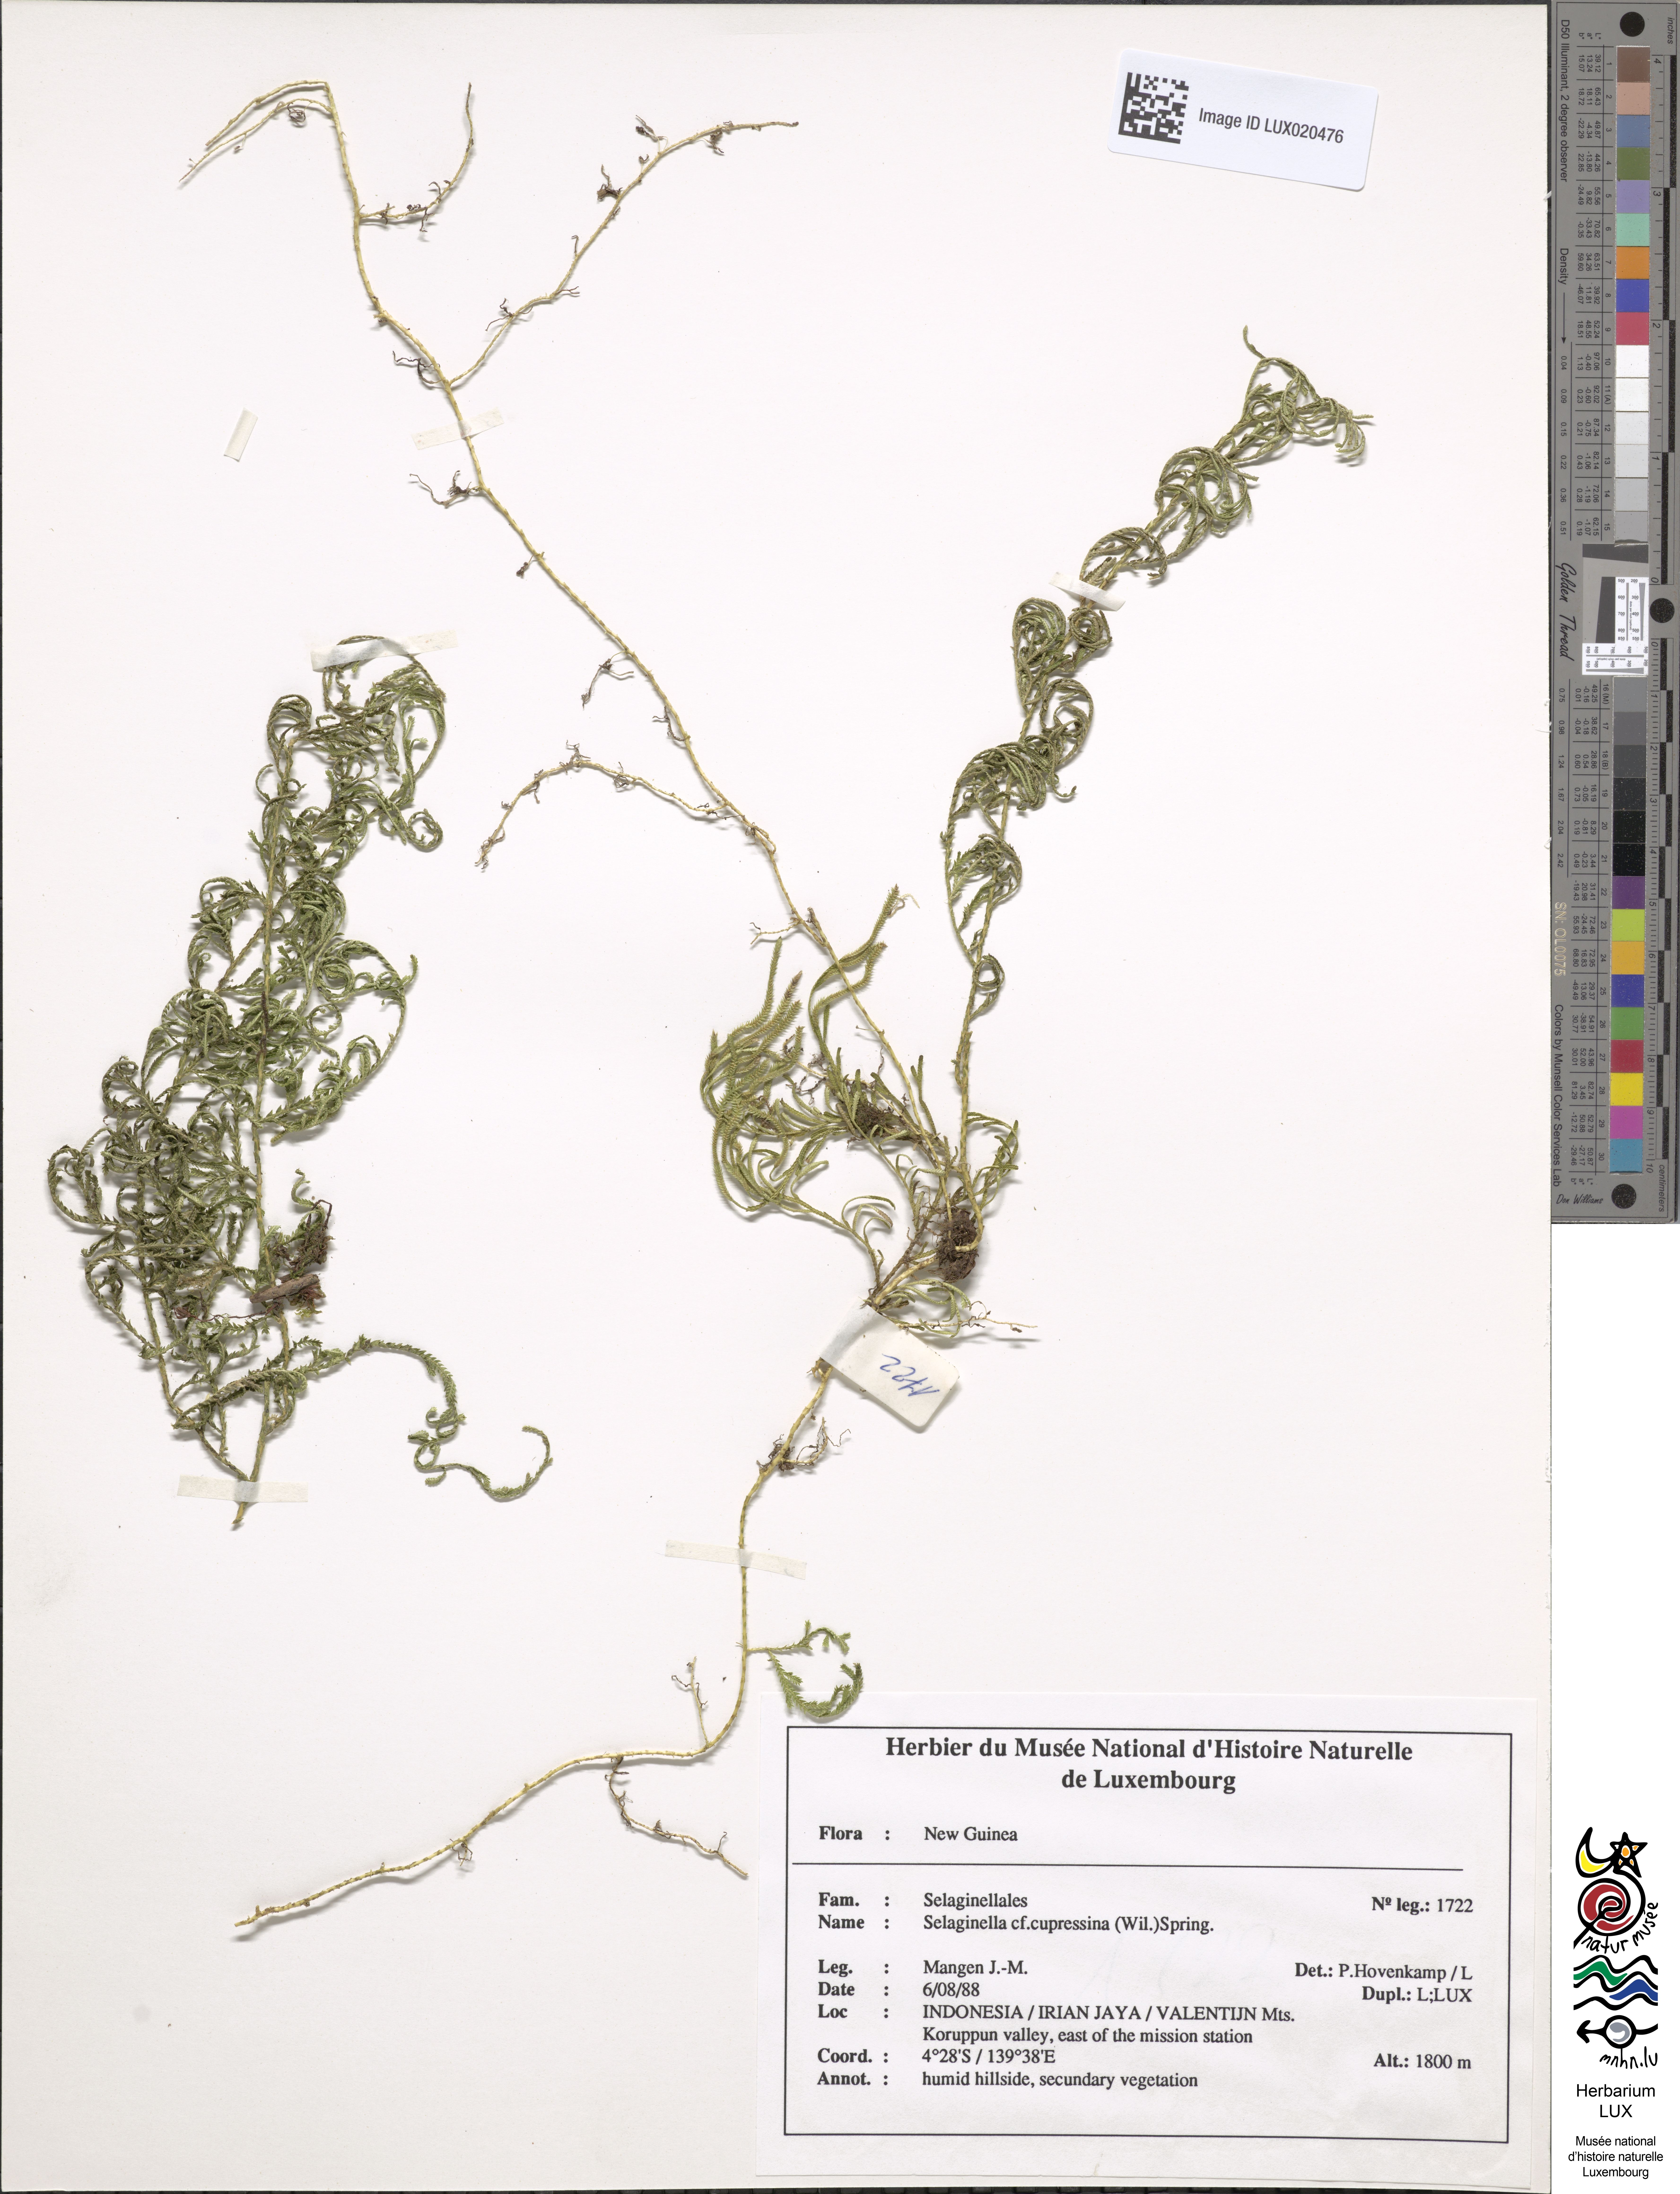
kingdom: Plantae
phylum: Tracheophyta
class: Lycopodiopsida
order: Selaginellales
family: Selaginellaceae
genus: Selaginella
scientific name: Selaginella cupressina
